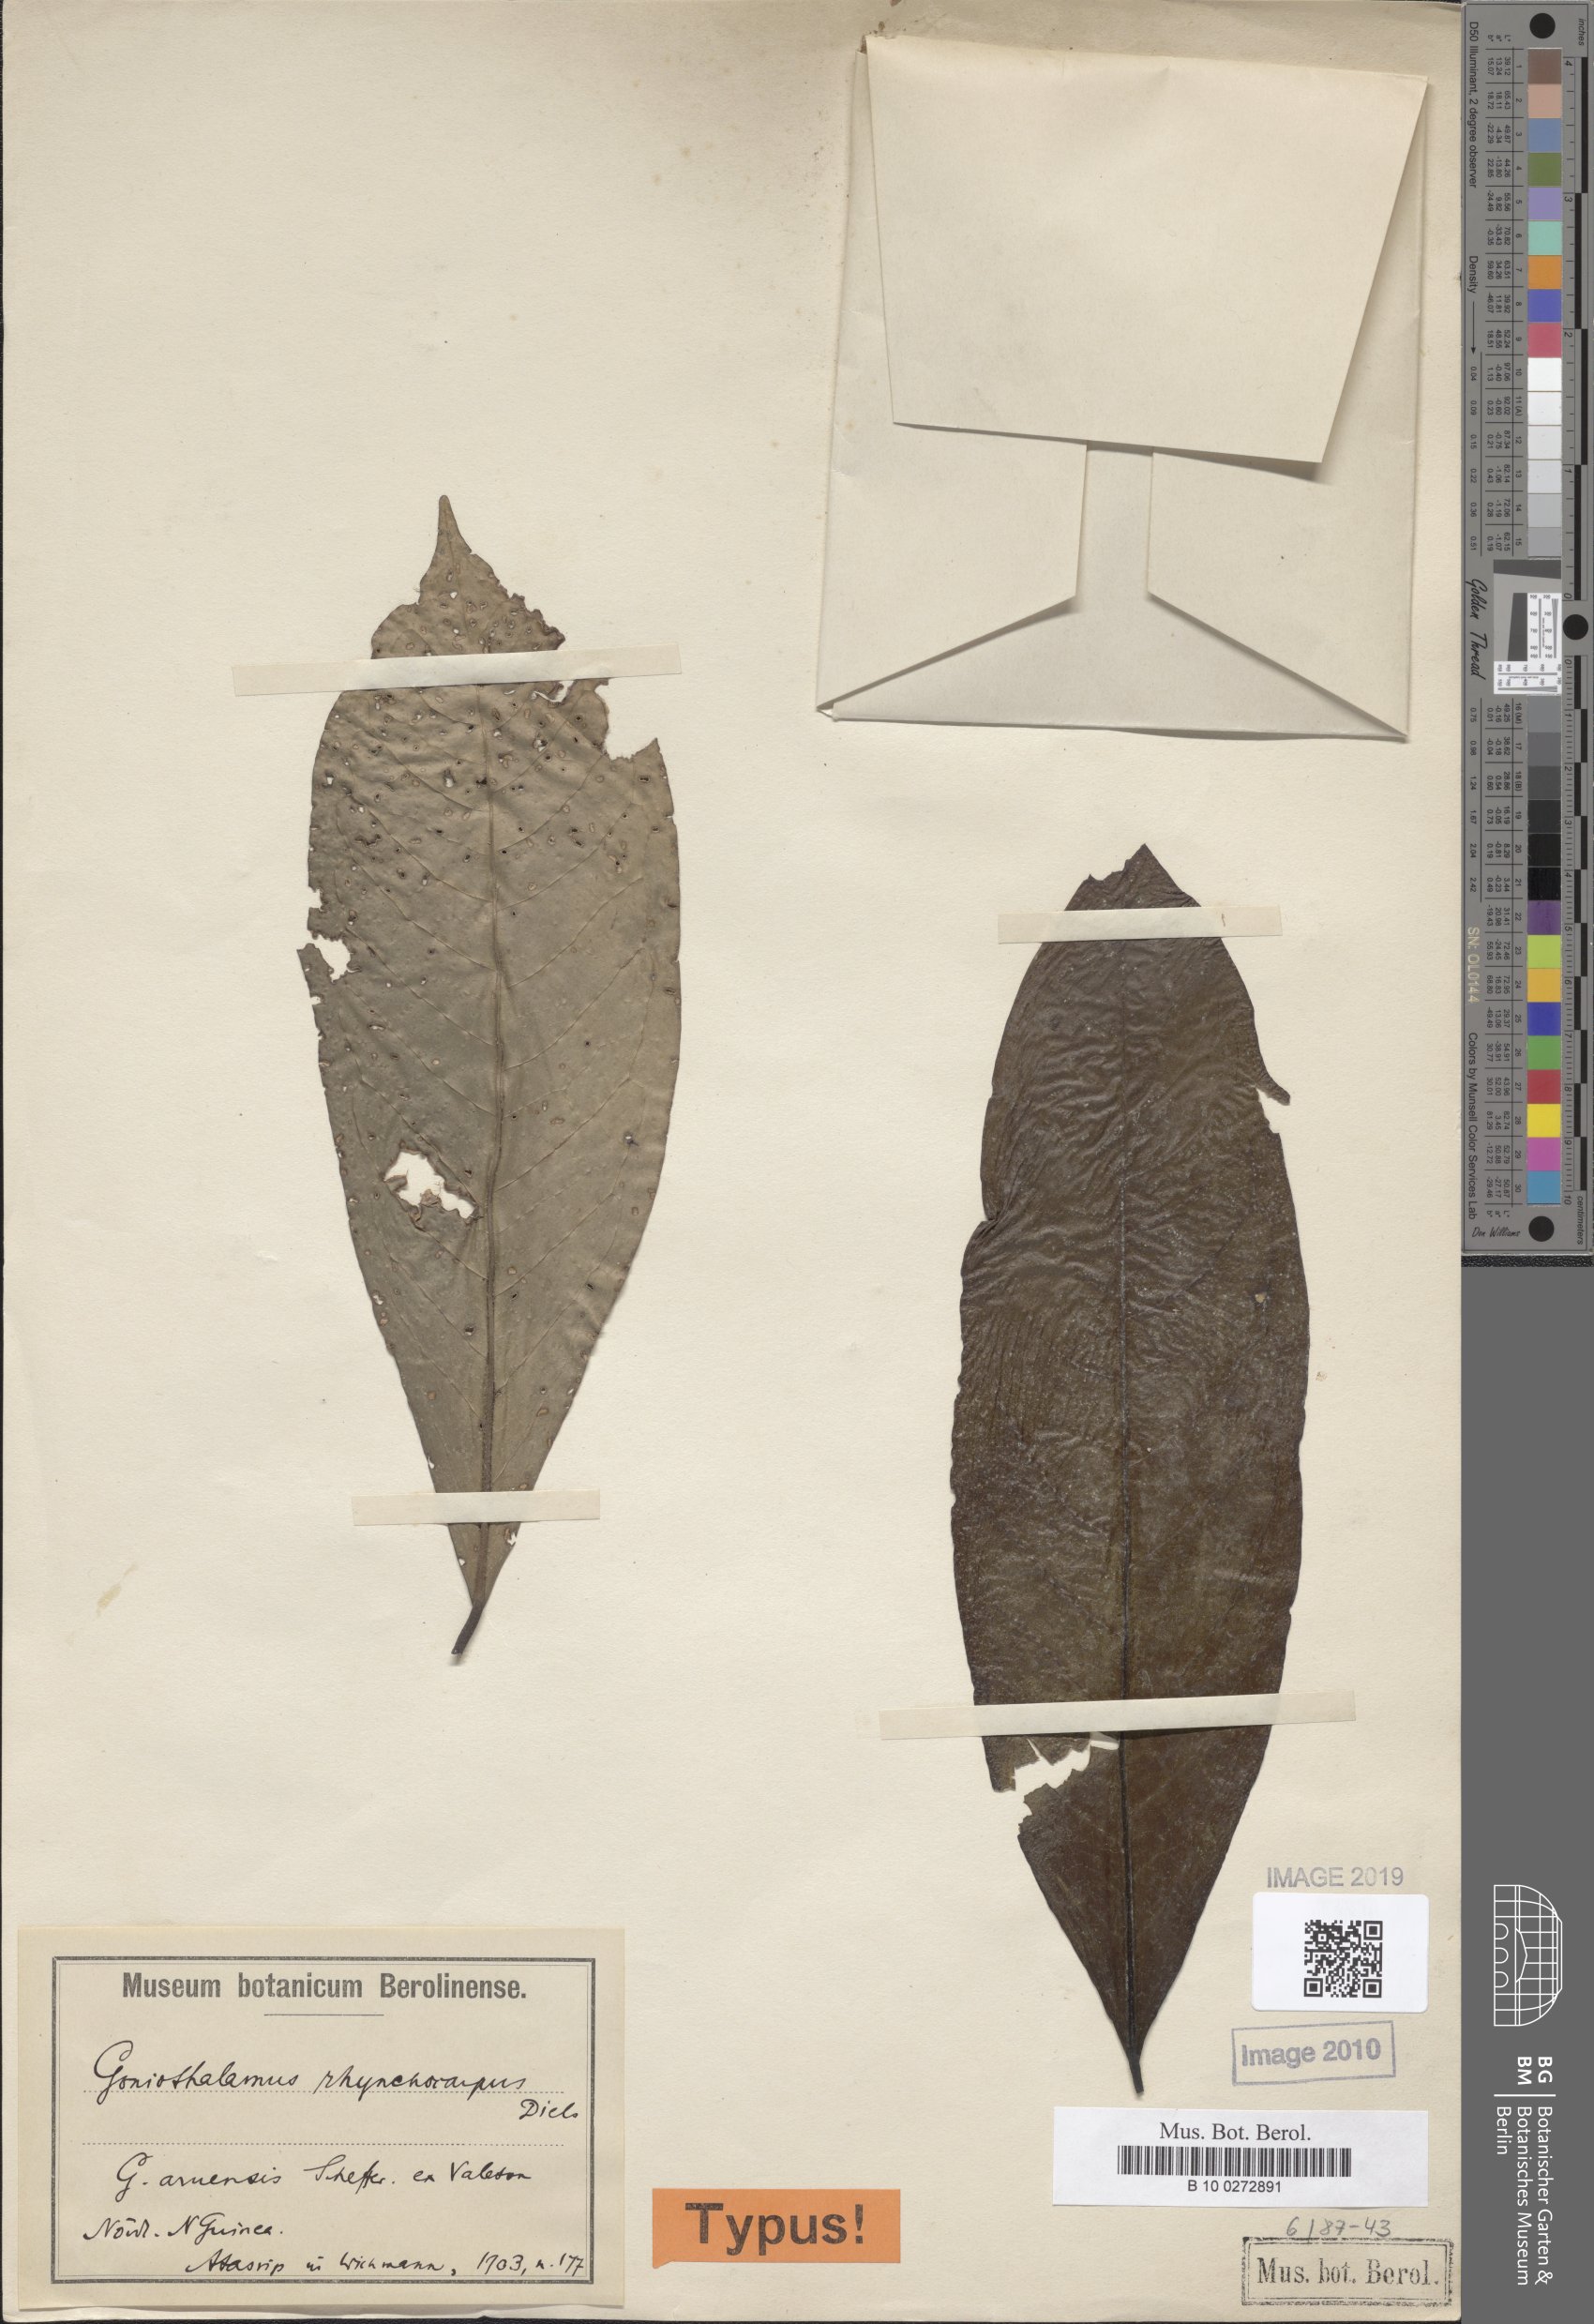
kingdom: Plantae
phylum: Tracheophyta
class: Magnoliopsida
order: Magnoliales
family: Annonaceae
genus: Goniothalamus
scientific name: Goniothalamus aruensis
